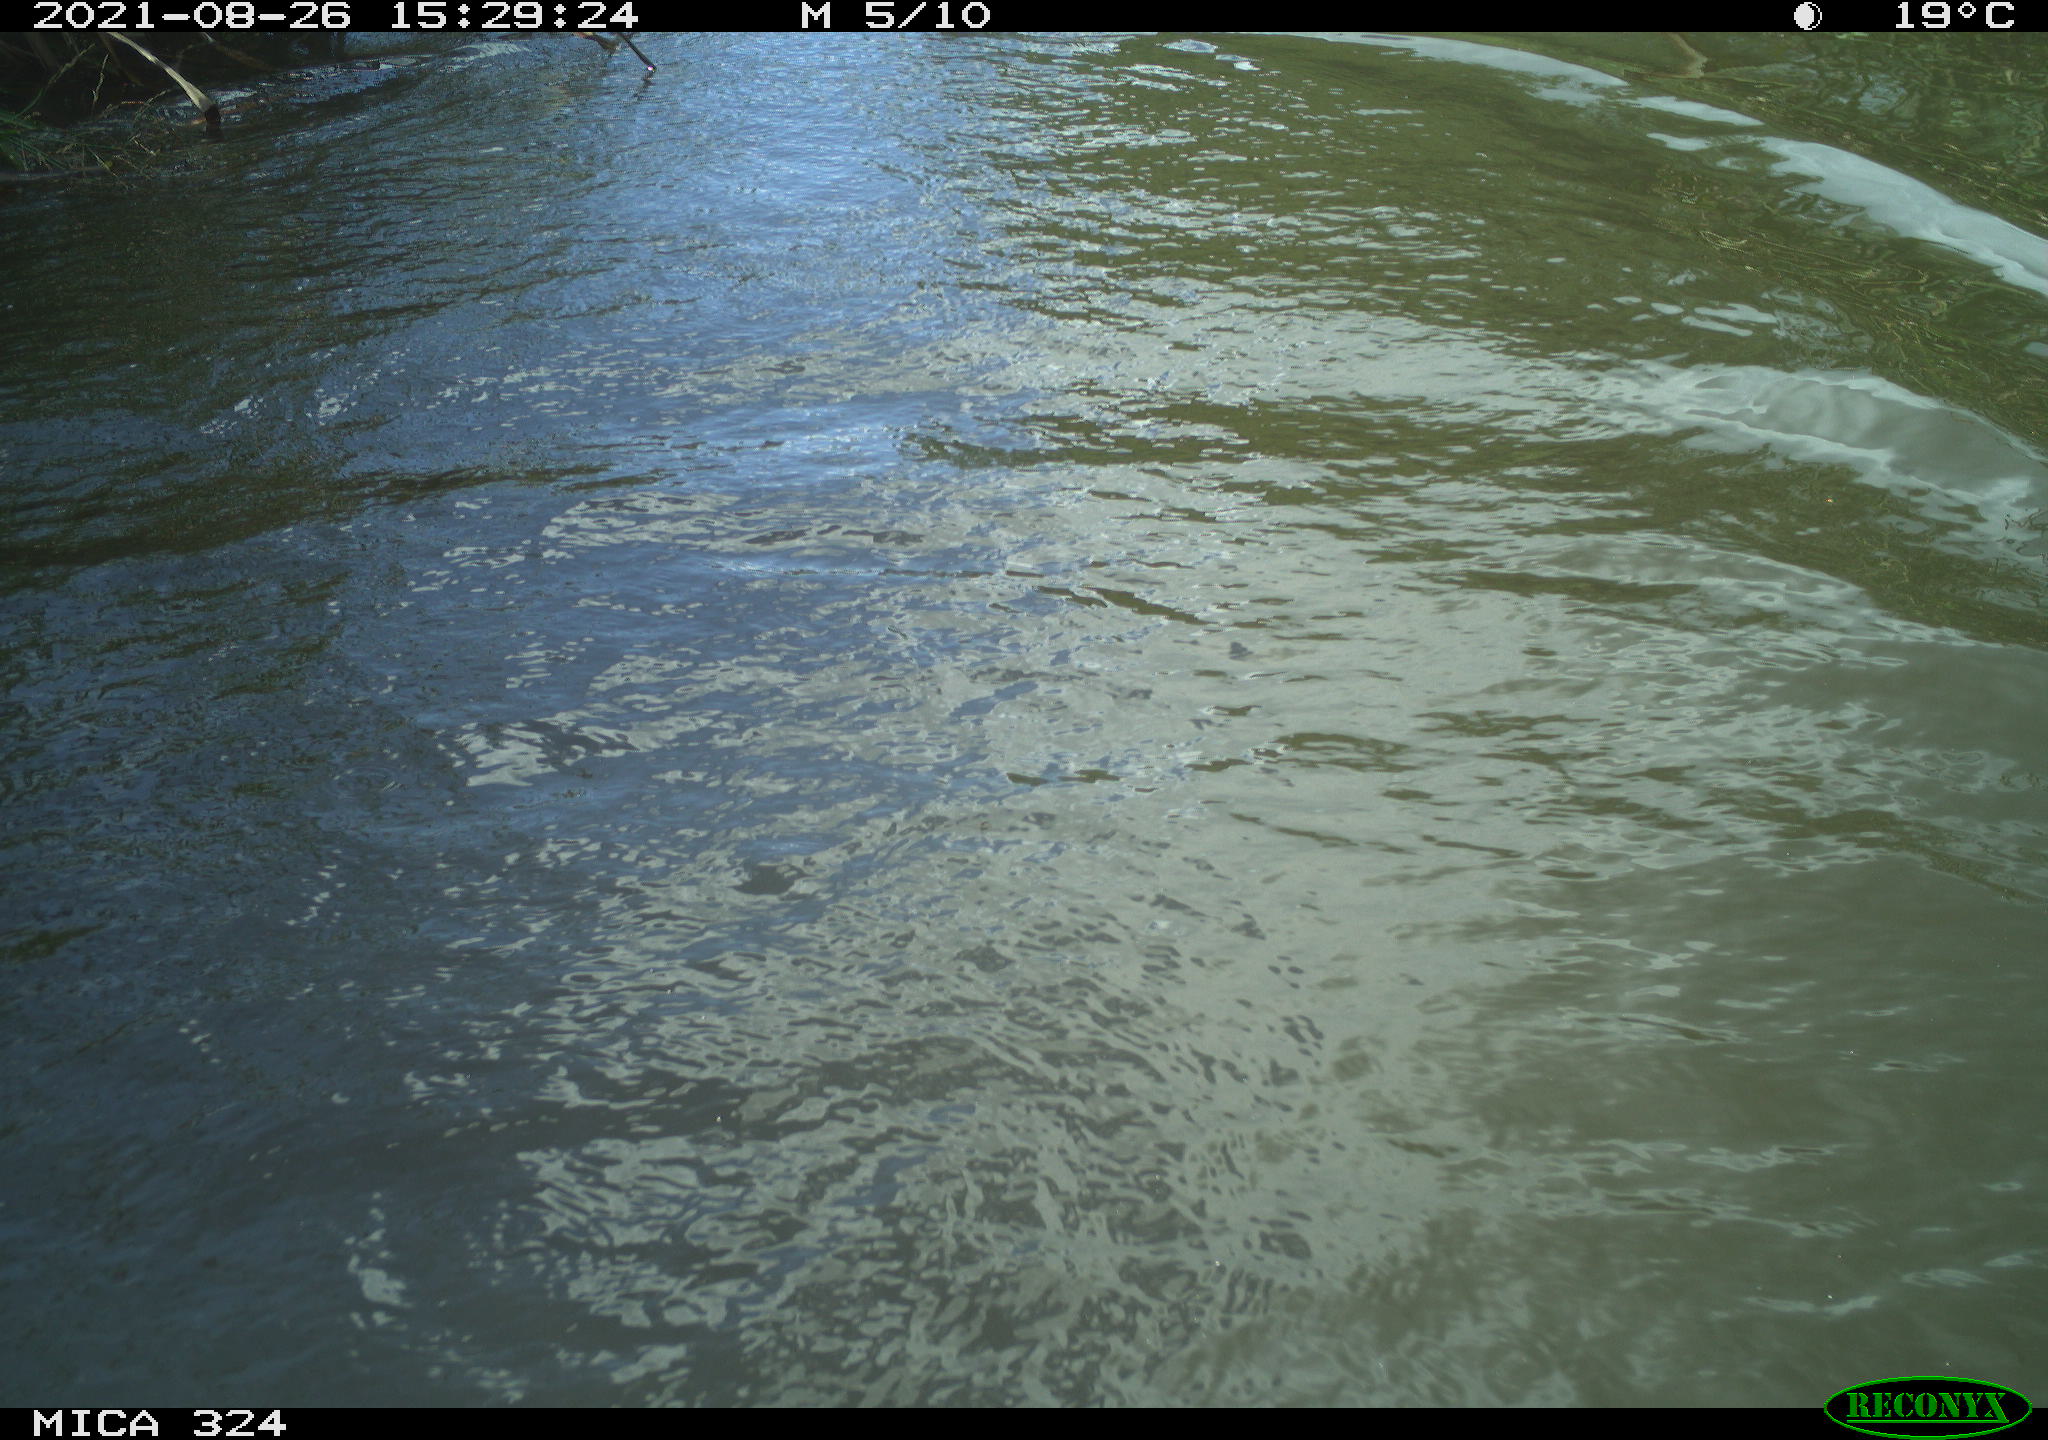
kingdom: Animalia
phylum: Chordata
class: Aves
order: Anseriformes
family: Anatidae
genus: Anas
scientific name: Anas platyrhynchos
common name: Mallard
